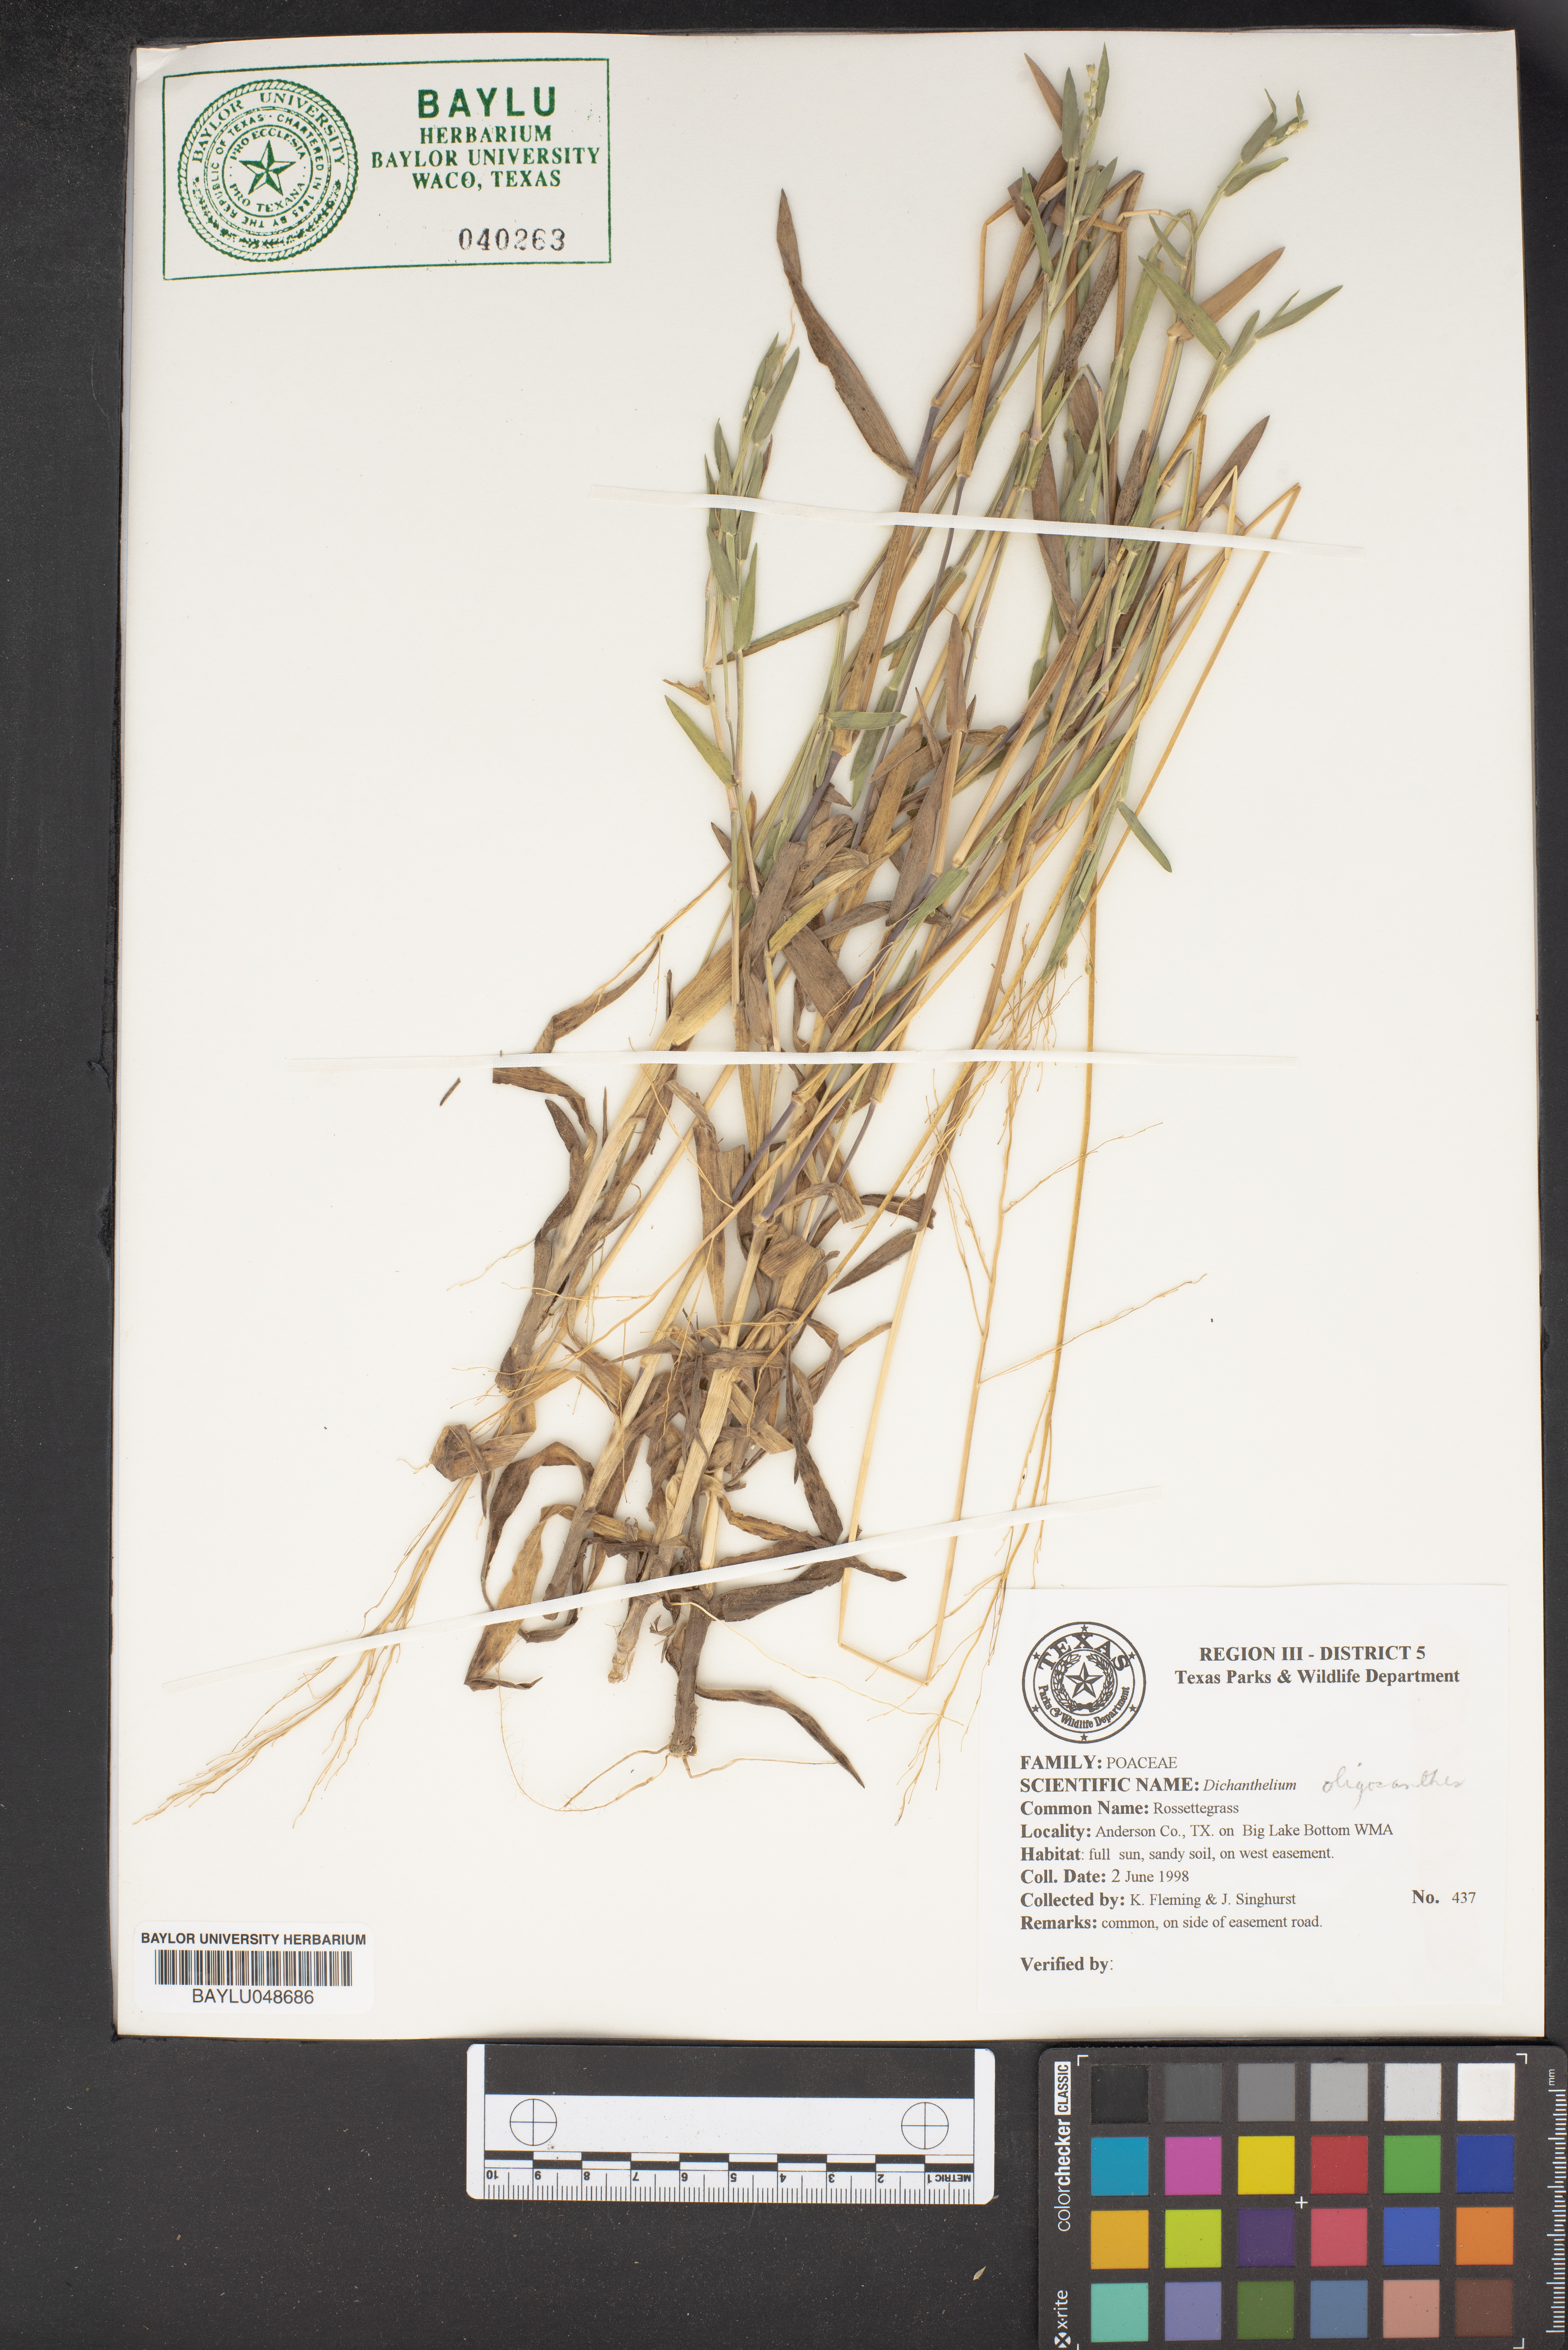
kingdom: Plantae
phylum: Tracheophyta
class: Liliopsida
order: Poales
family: Poaceae
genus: Dichanthelium
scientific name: Dichanthelium oligosanthes
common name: Few-anther obscuregrass
